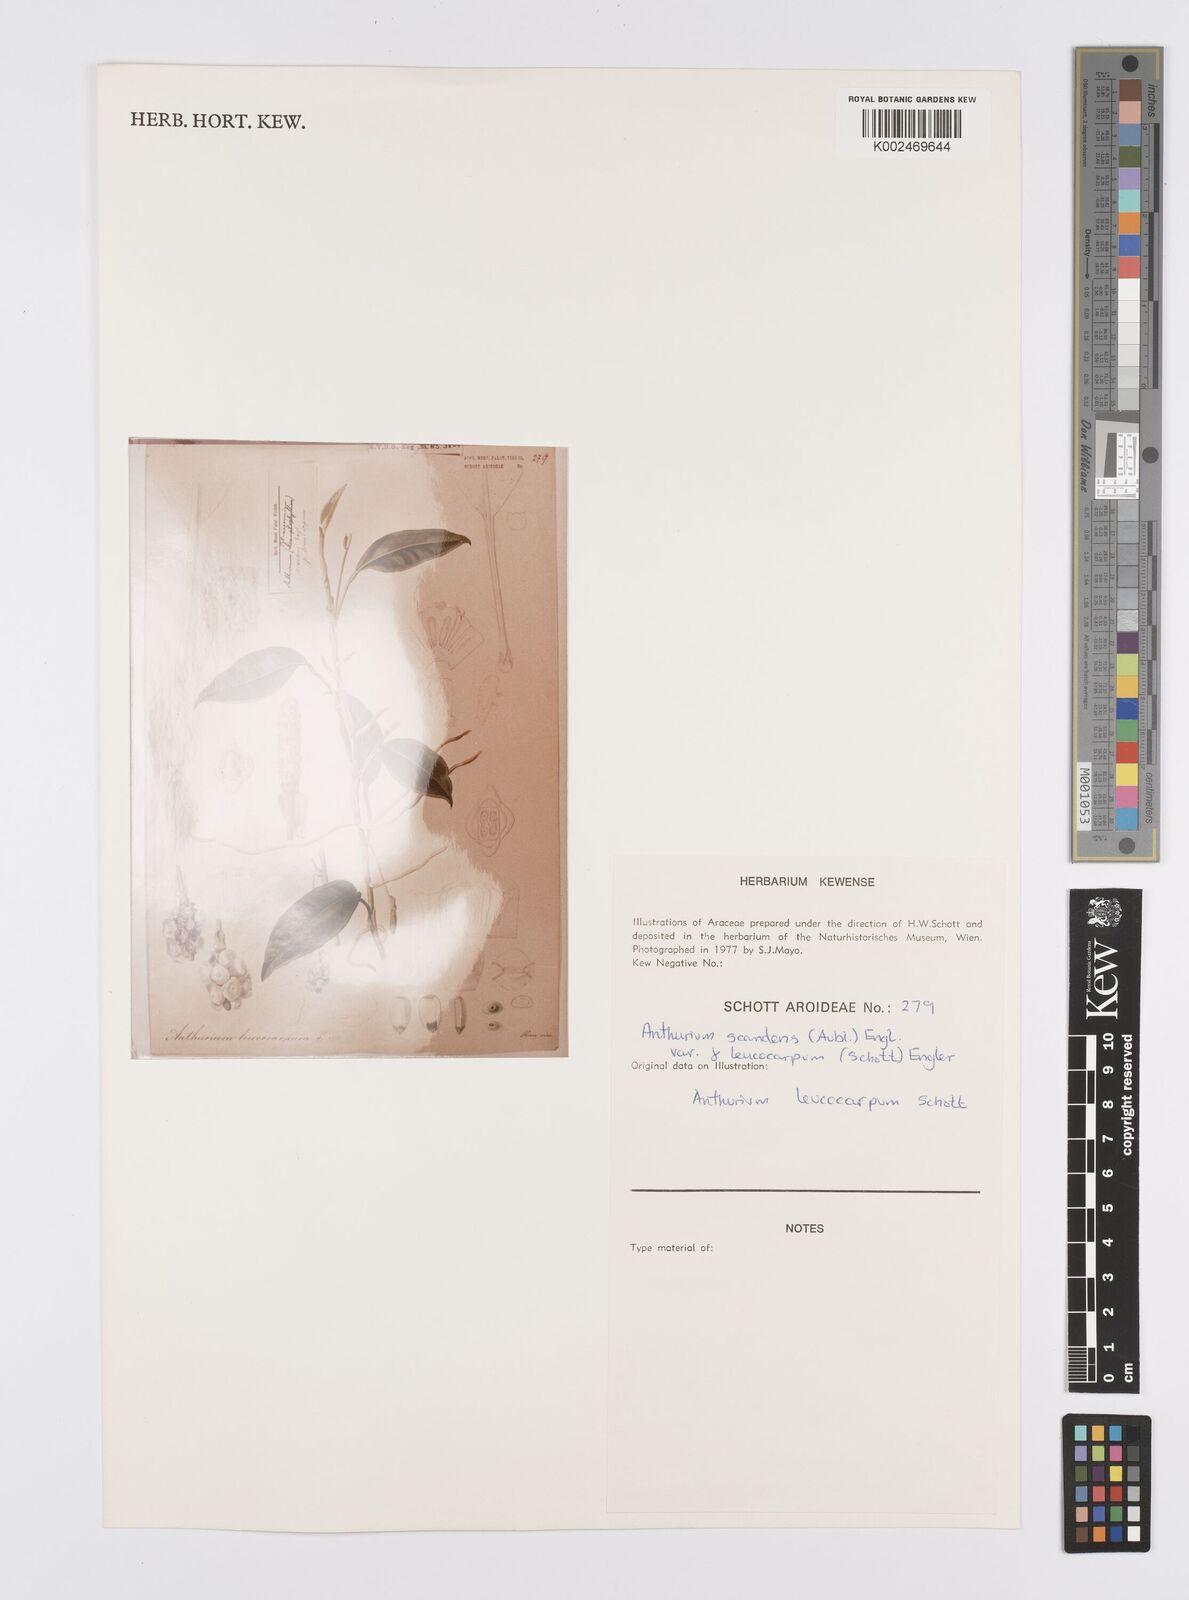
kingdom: Plantae
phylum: Tracheophyta
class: Liliopsida
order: Alismatales
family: Araceae
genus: Anthurium
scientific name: Anthurium scandens
